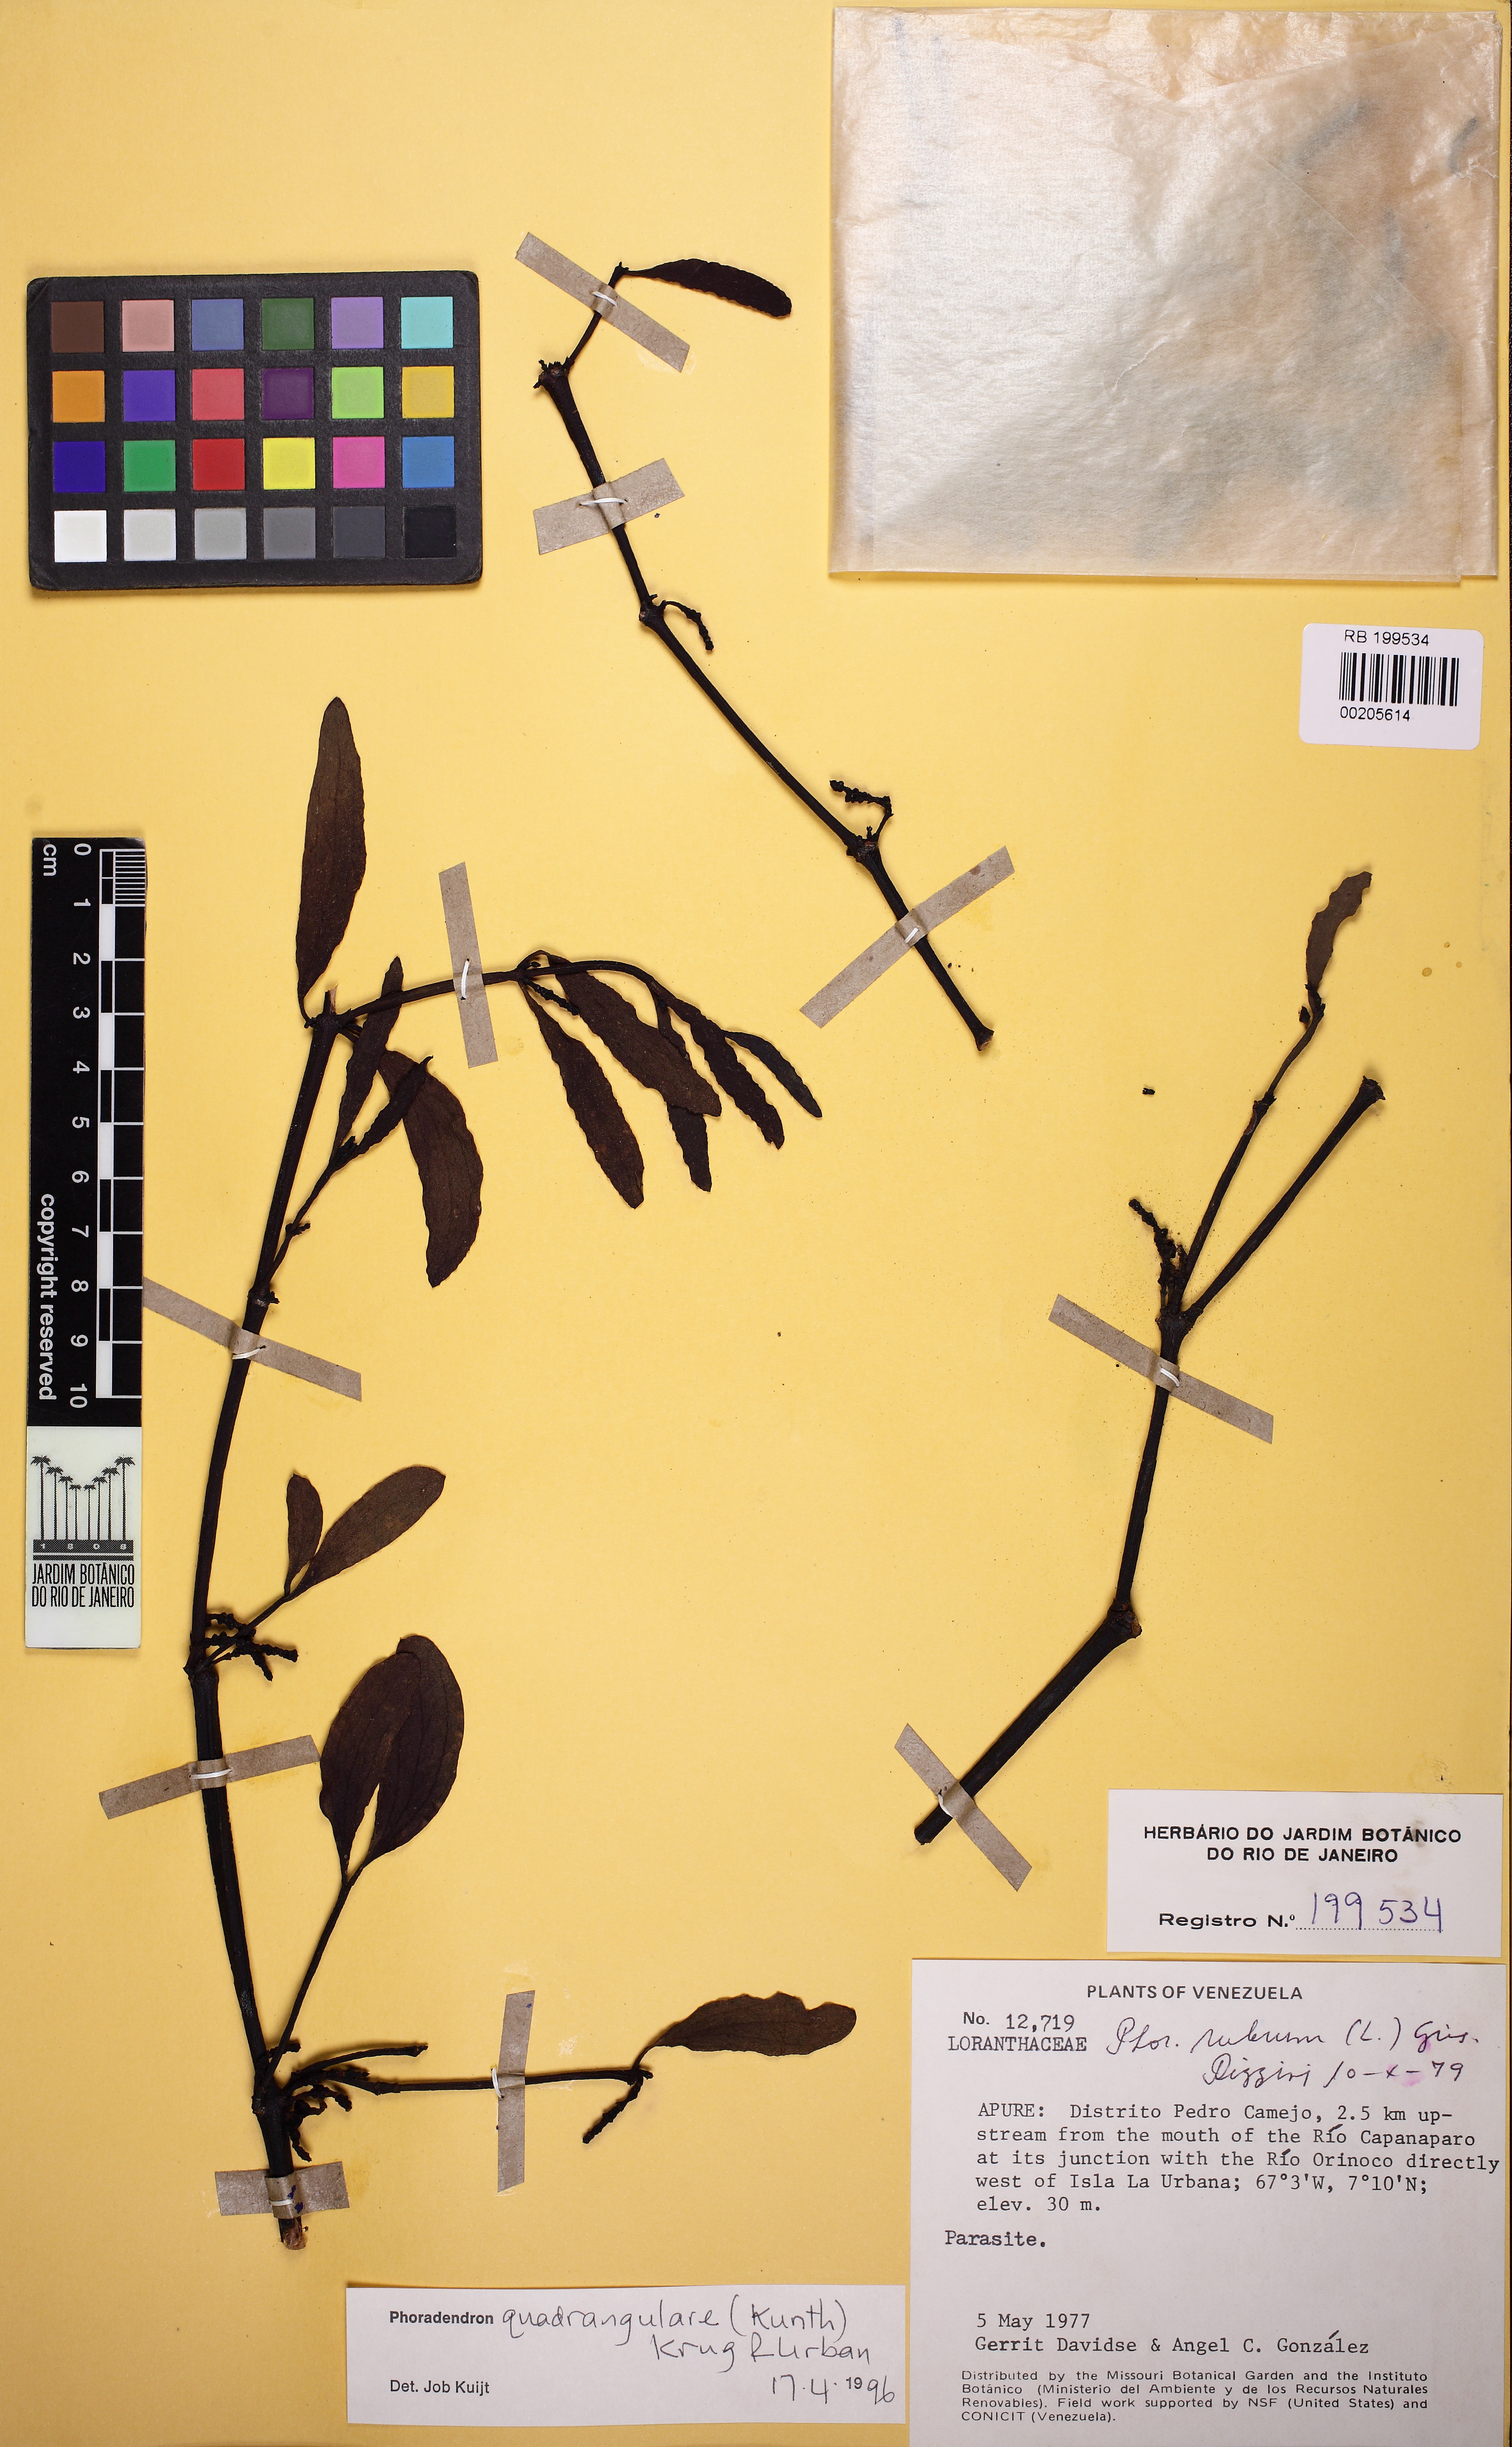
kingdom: Plantae
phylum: Tracheophyta
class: Magnoliopsida
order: Santalales
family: Viscaceae
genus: Phoradendron
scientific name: Phoradendron quadrangulare
